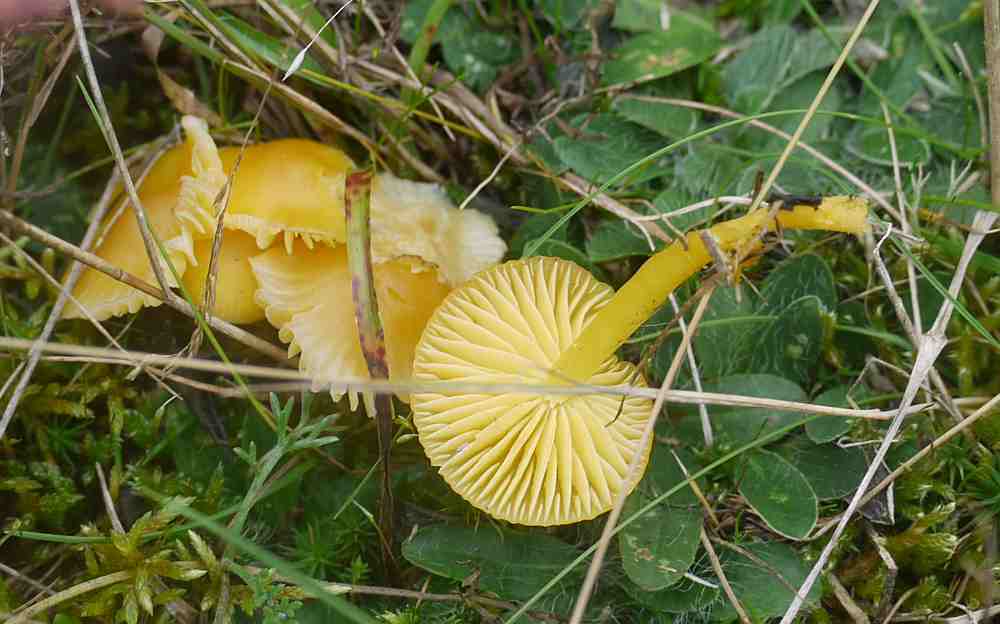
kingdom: Fungi
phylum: Basidiomycota
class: Agaricomycetes
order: Agaricales
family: Hygrophoraceae
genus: Hygrocybe
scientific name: Hygrocybe chlorophana
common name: gul vokshat
